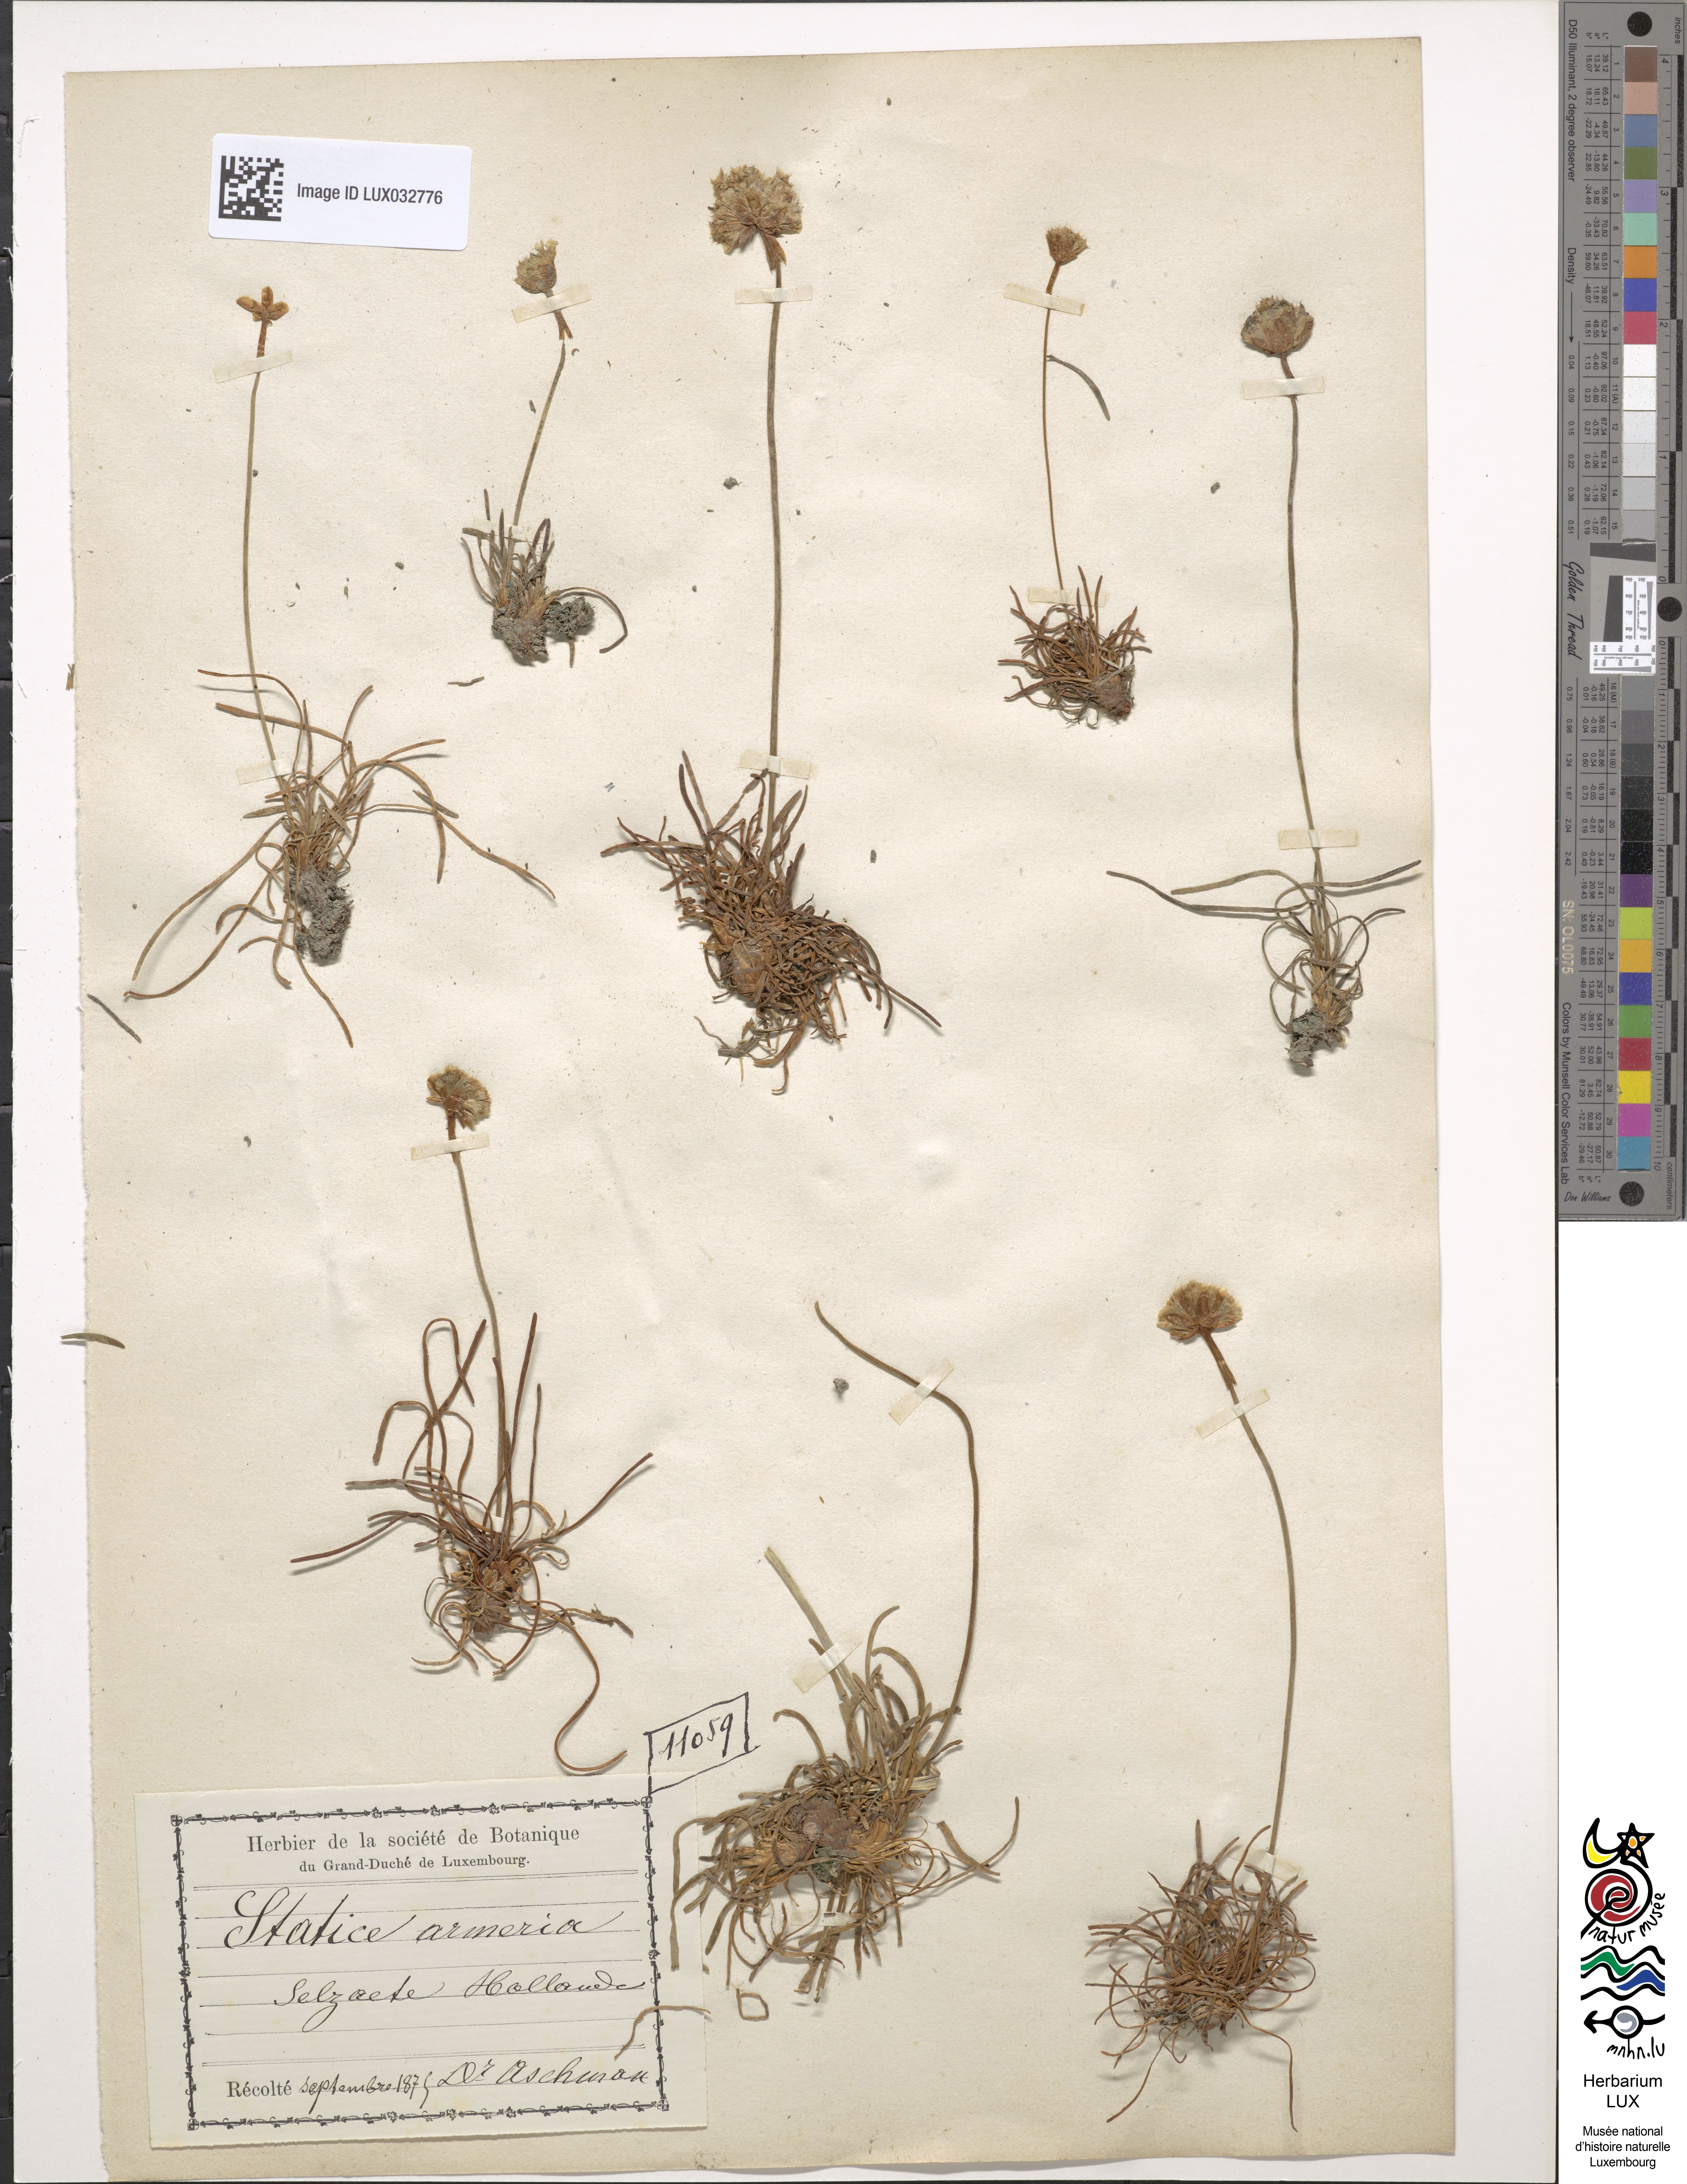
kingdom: Plantae
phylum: Tracheophyta
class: Magnoliopsida
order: Caryophyllales
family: Plumbaginaceae
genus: Armeria
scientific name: Armeria maritima
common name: Thrift
